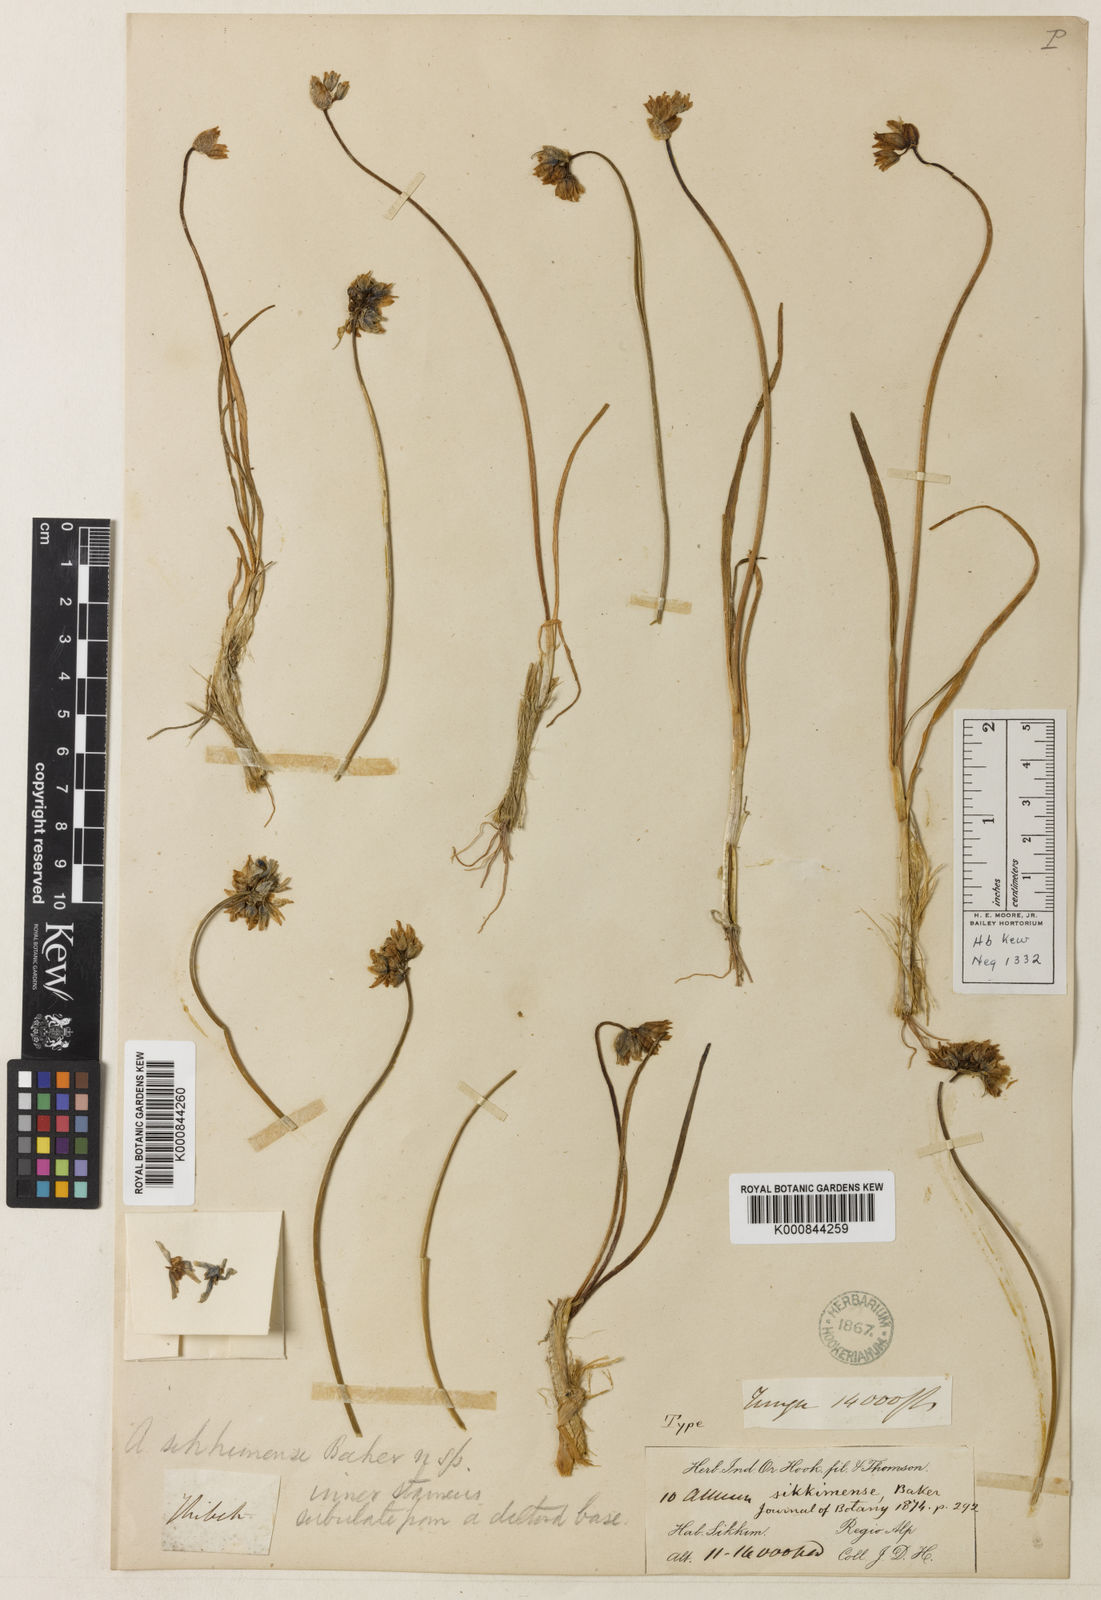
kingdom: Plantae
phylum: Tracheophyta
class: Liliopsida
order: Asparagales
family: Amaryllidaceae
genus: Allium
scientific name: Allium sikkimense
